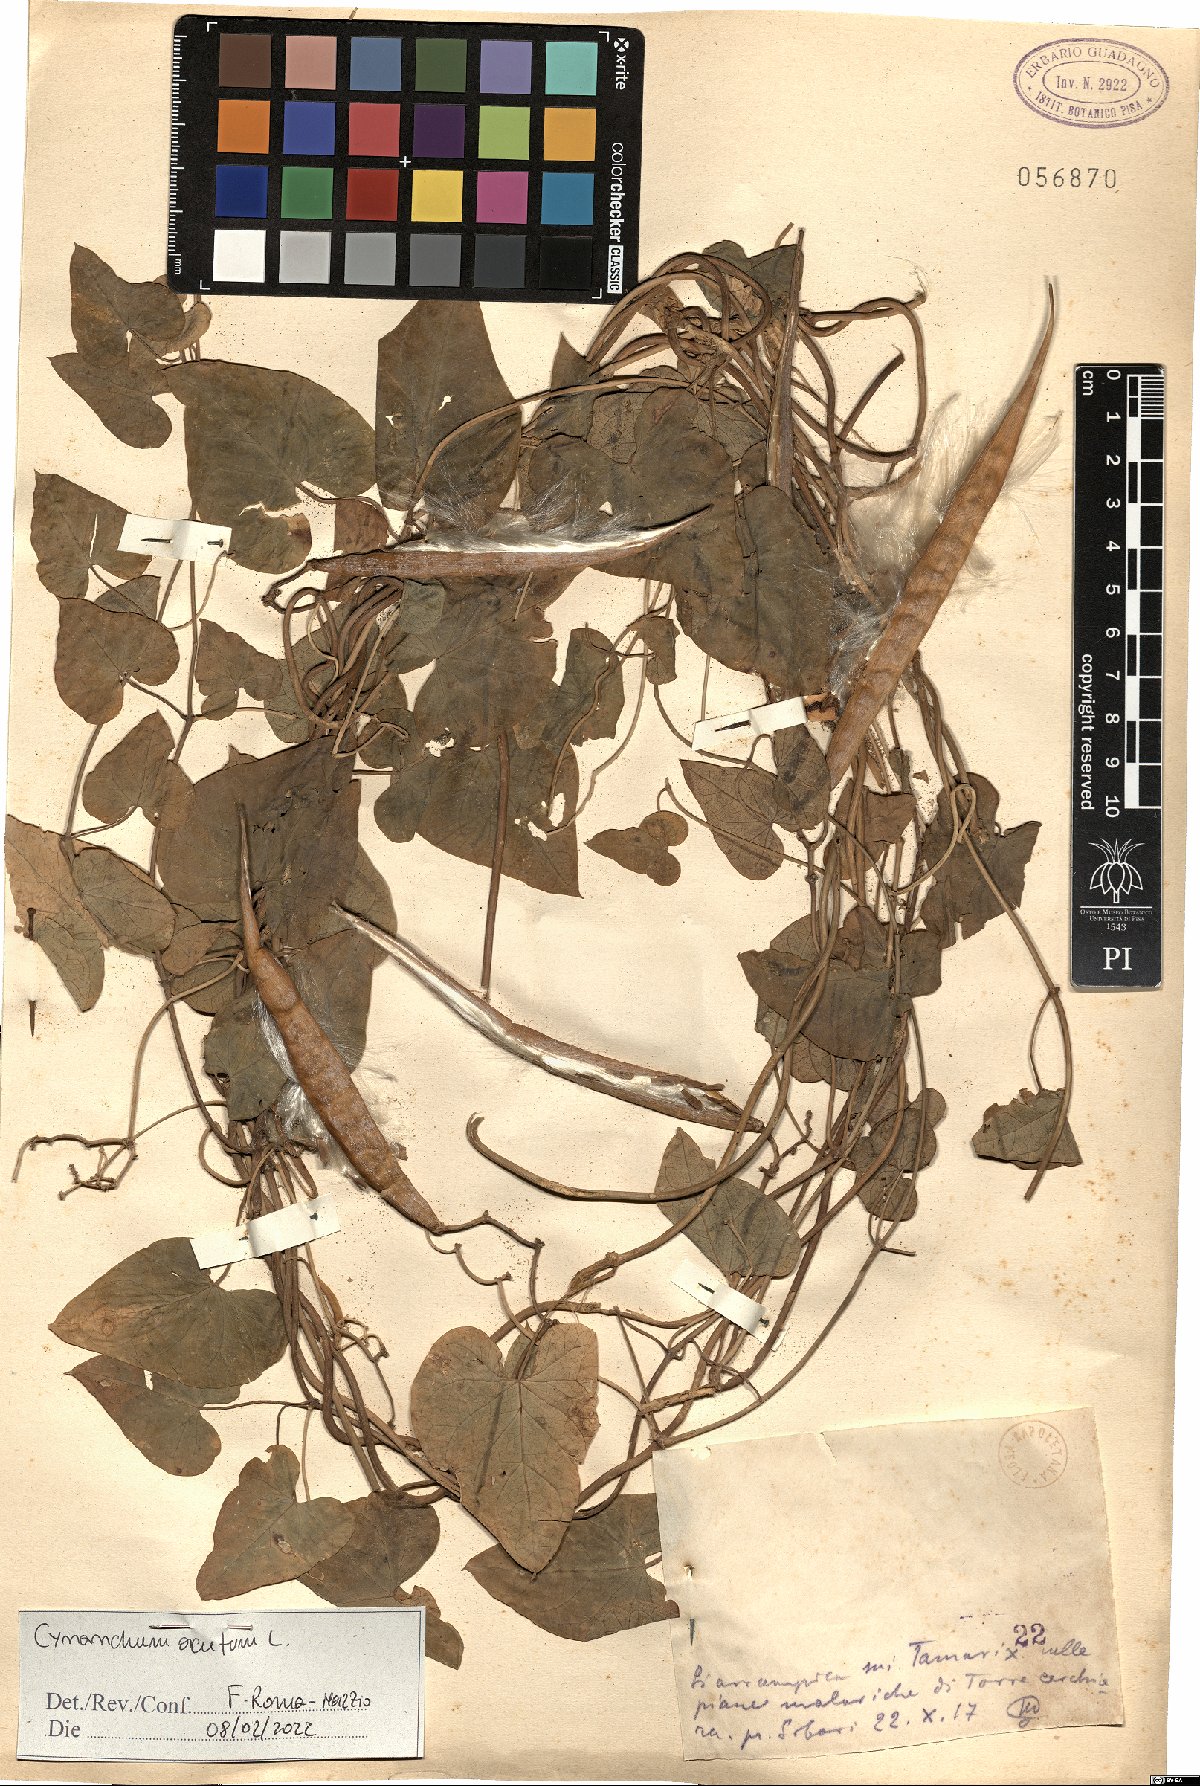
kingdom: Plantae
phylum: Tracheophyta
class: Magnoliopsida
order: Gentianales
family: Apocynaceae
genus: Cynanchum
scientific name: Cynanchum acutum
